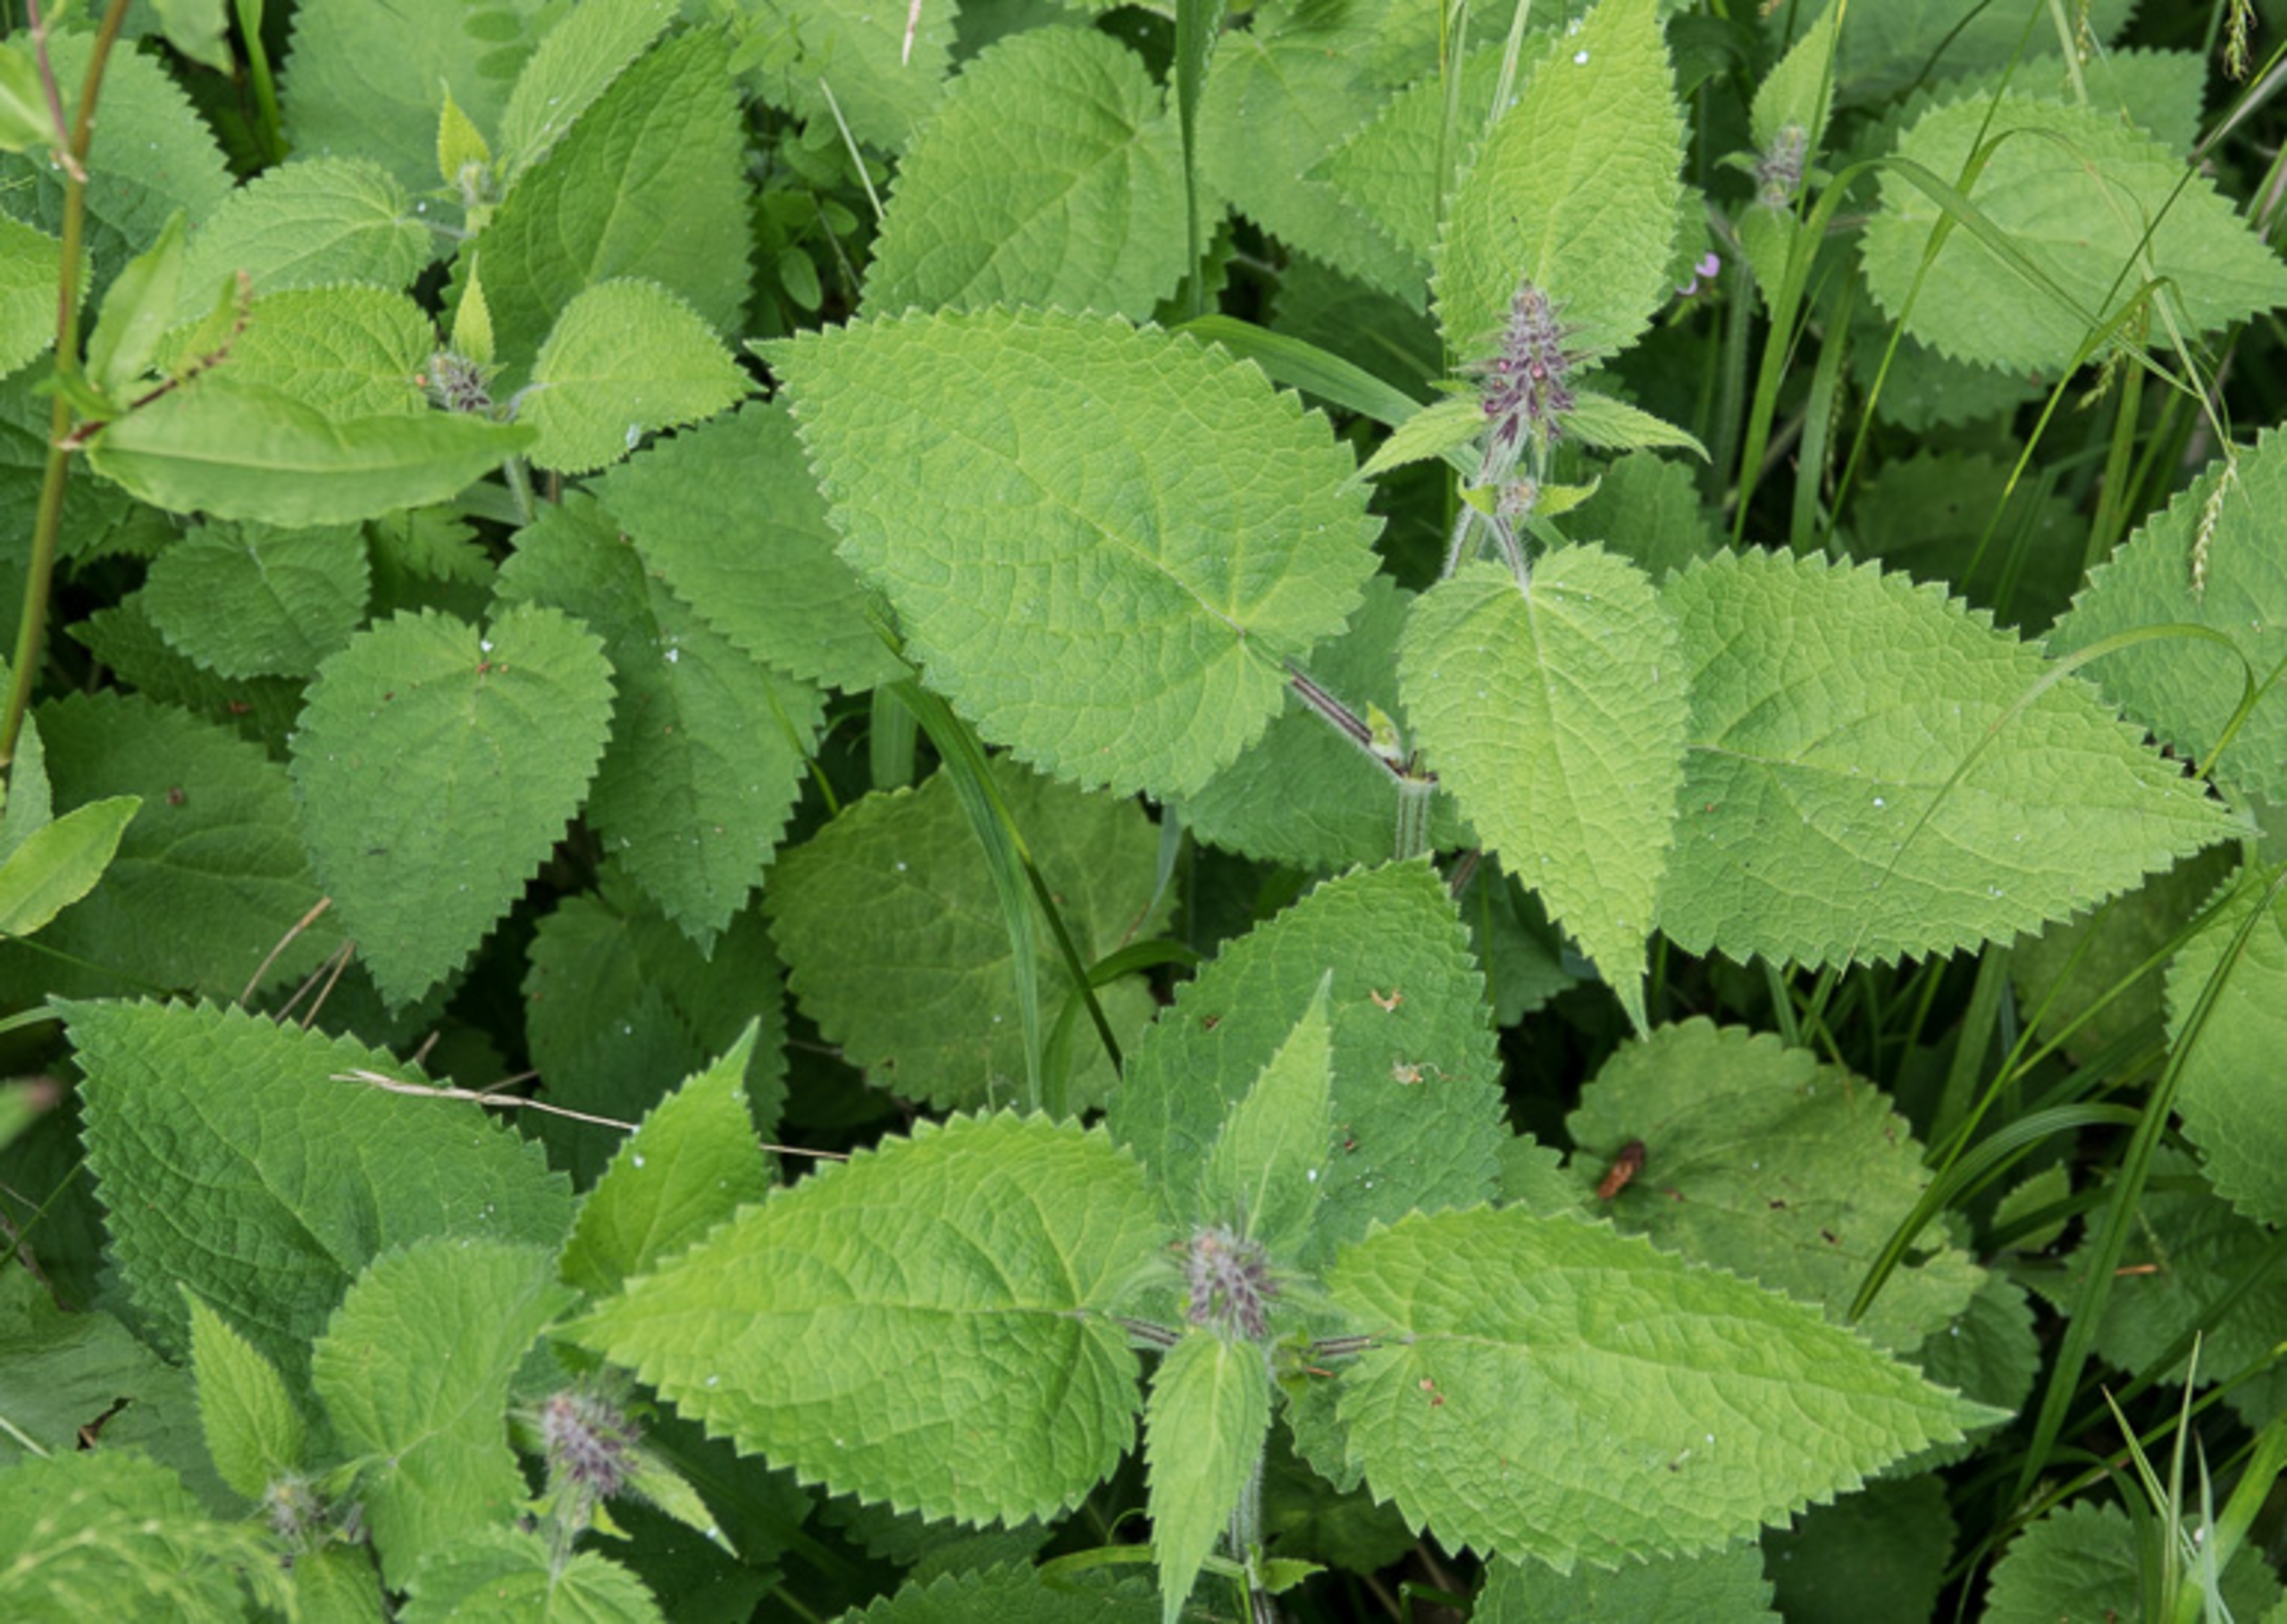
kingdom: Plantae
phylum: Tracheophyta
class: Magnoliopsida
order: Lamiales
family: Lamiaceae
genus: Stachys
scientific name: Stachys sylvatica
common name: Skov-galtetand
